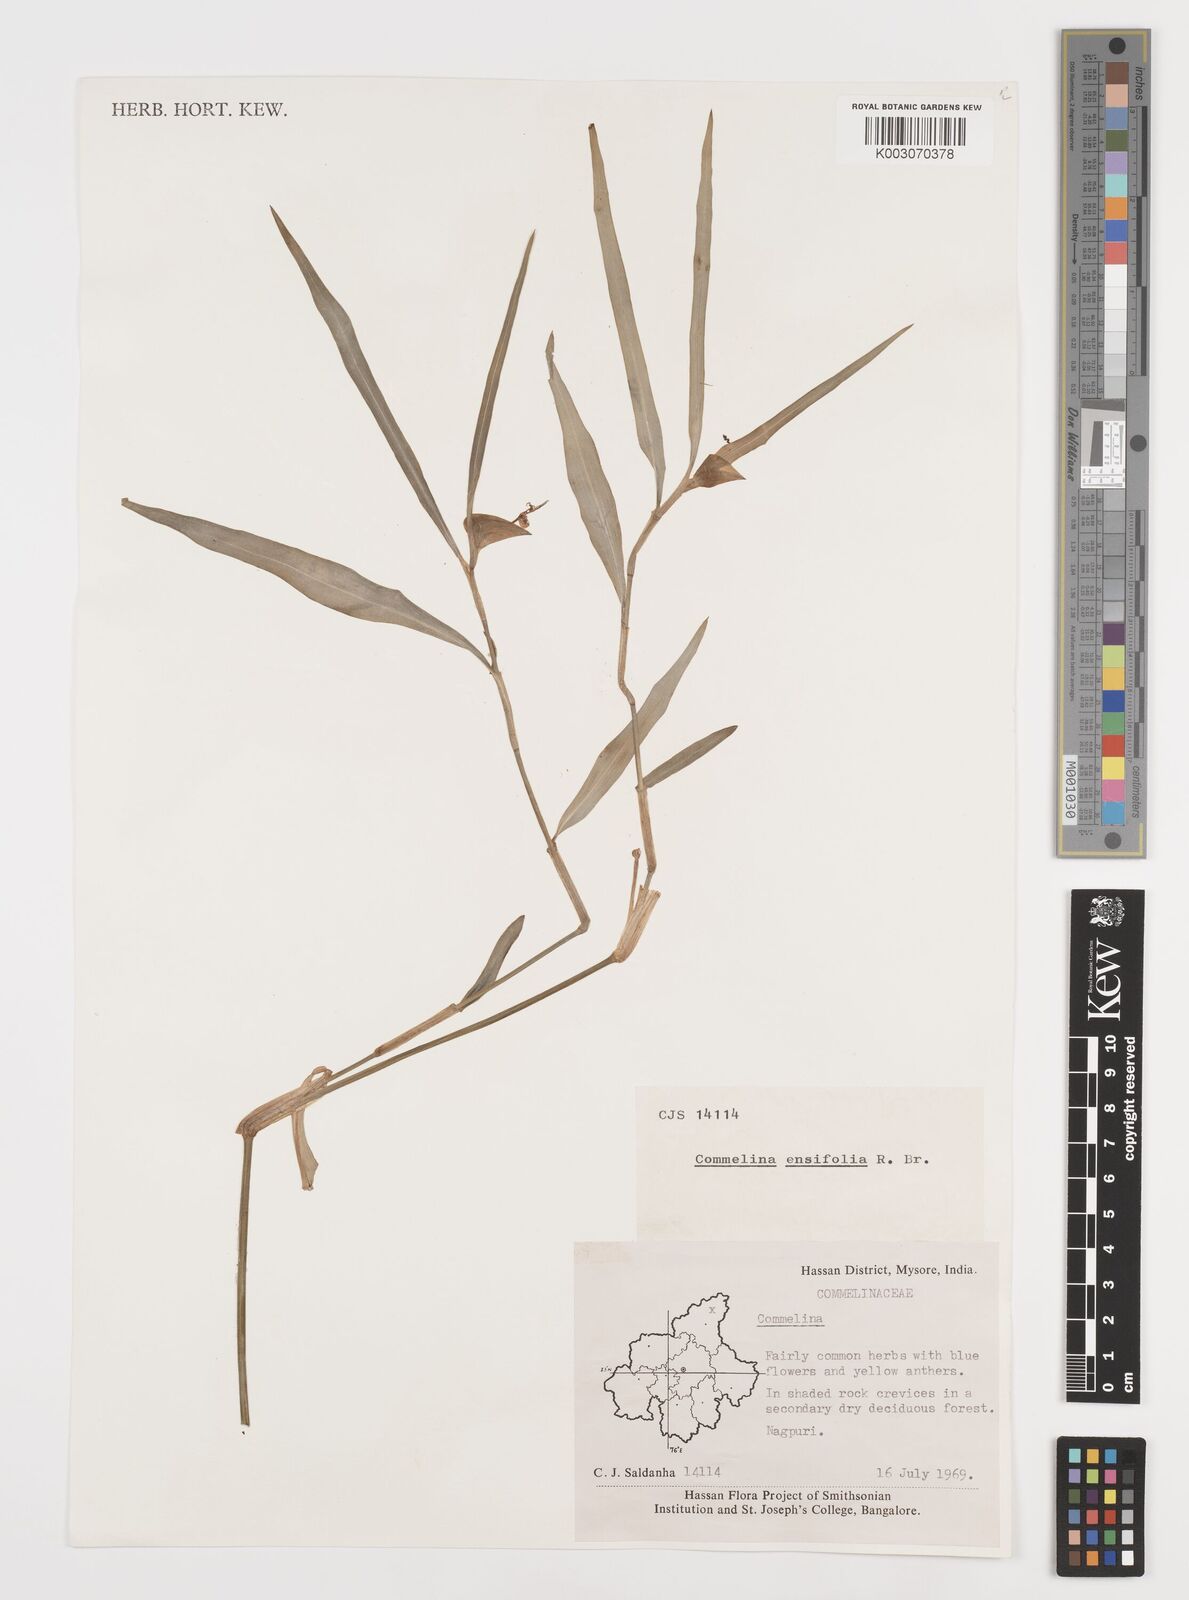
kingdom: Plantae
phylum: Tracheophyta
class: Liliopsida
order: Commelinales
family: Commelinaceae
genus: Commelina
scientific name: Commelina ensifolia
